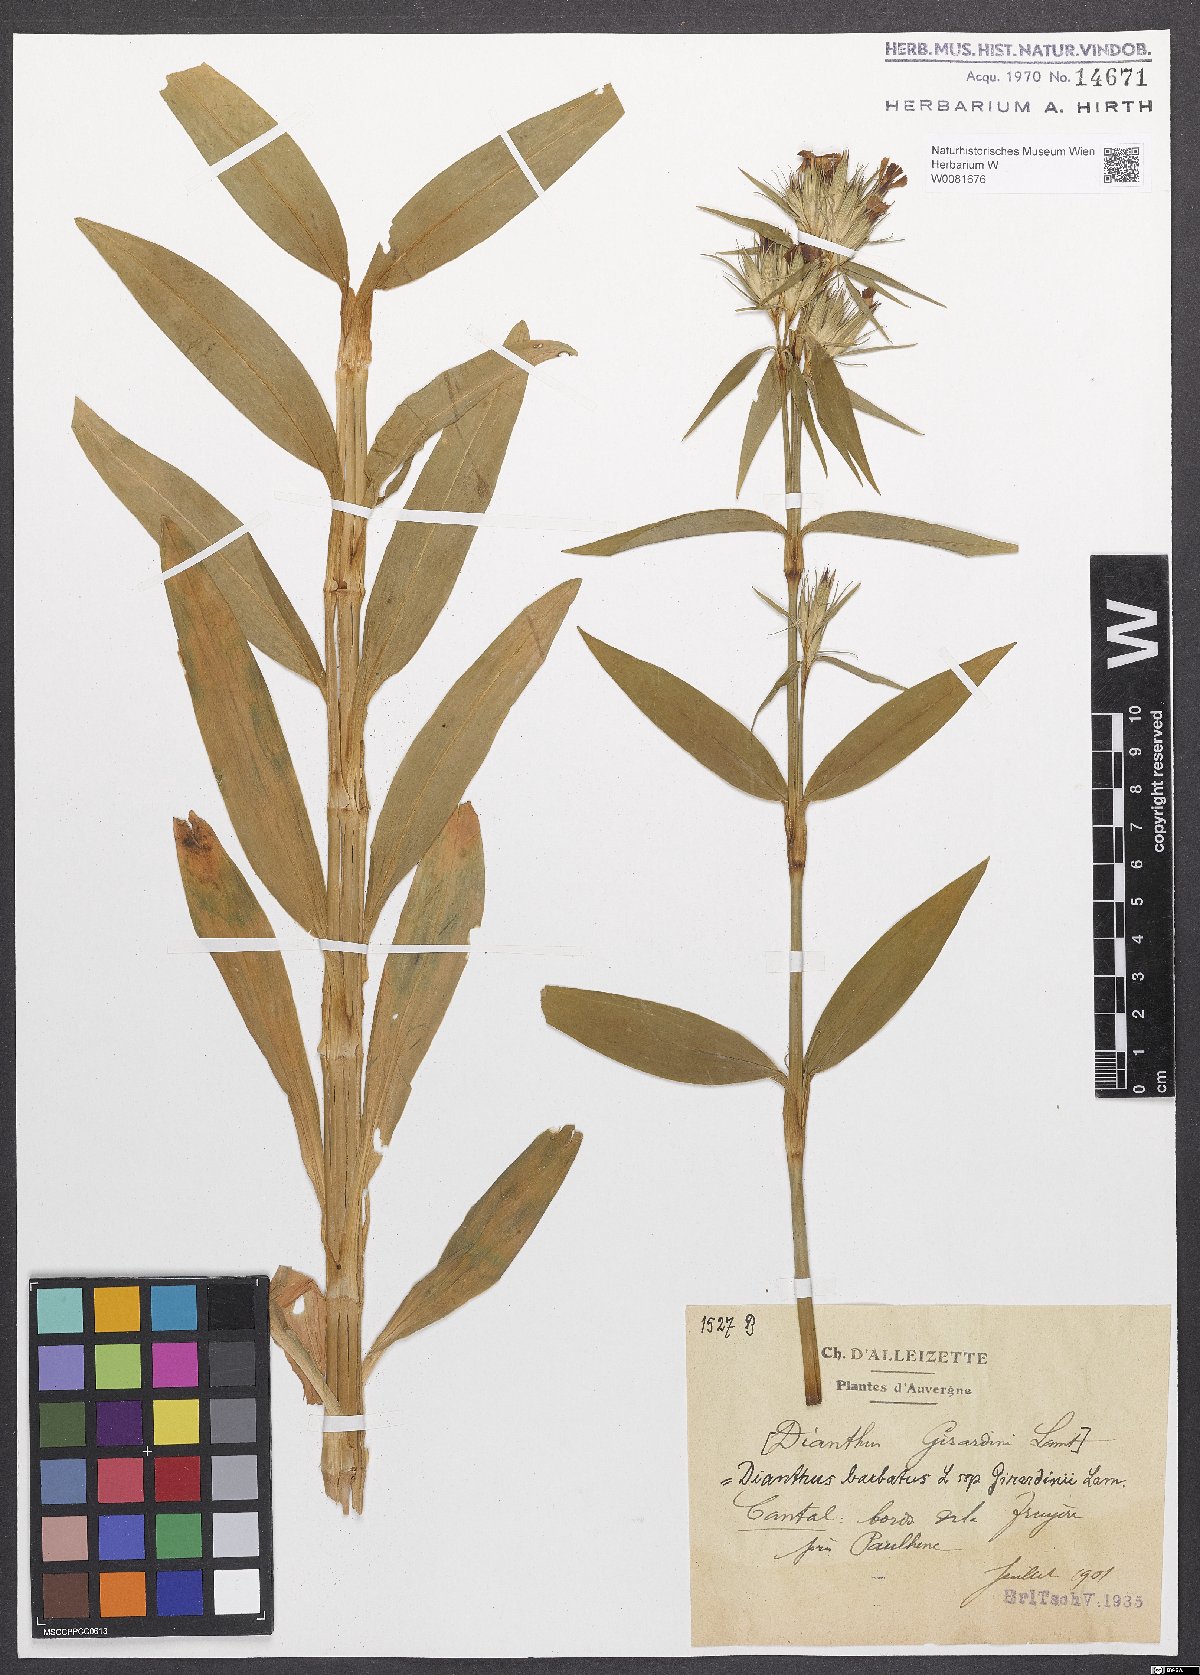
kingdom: Plantae
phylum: Tracheophyta
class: Magnoliopsida
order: Caryophyllales
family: Caryophyllaceae
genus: Dianthus
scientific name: Dianthus barbatus
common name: Sweet-william
